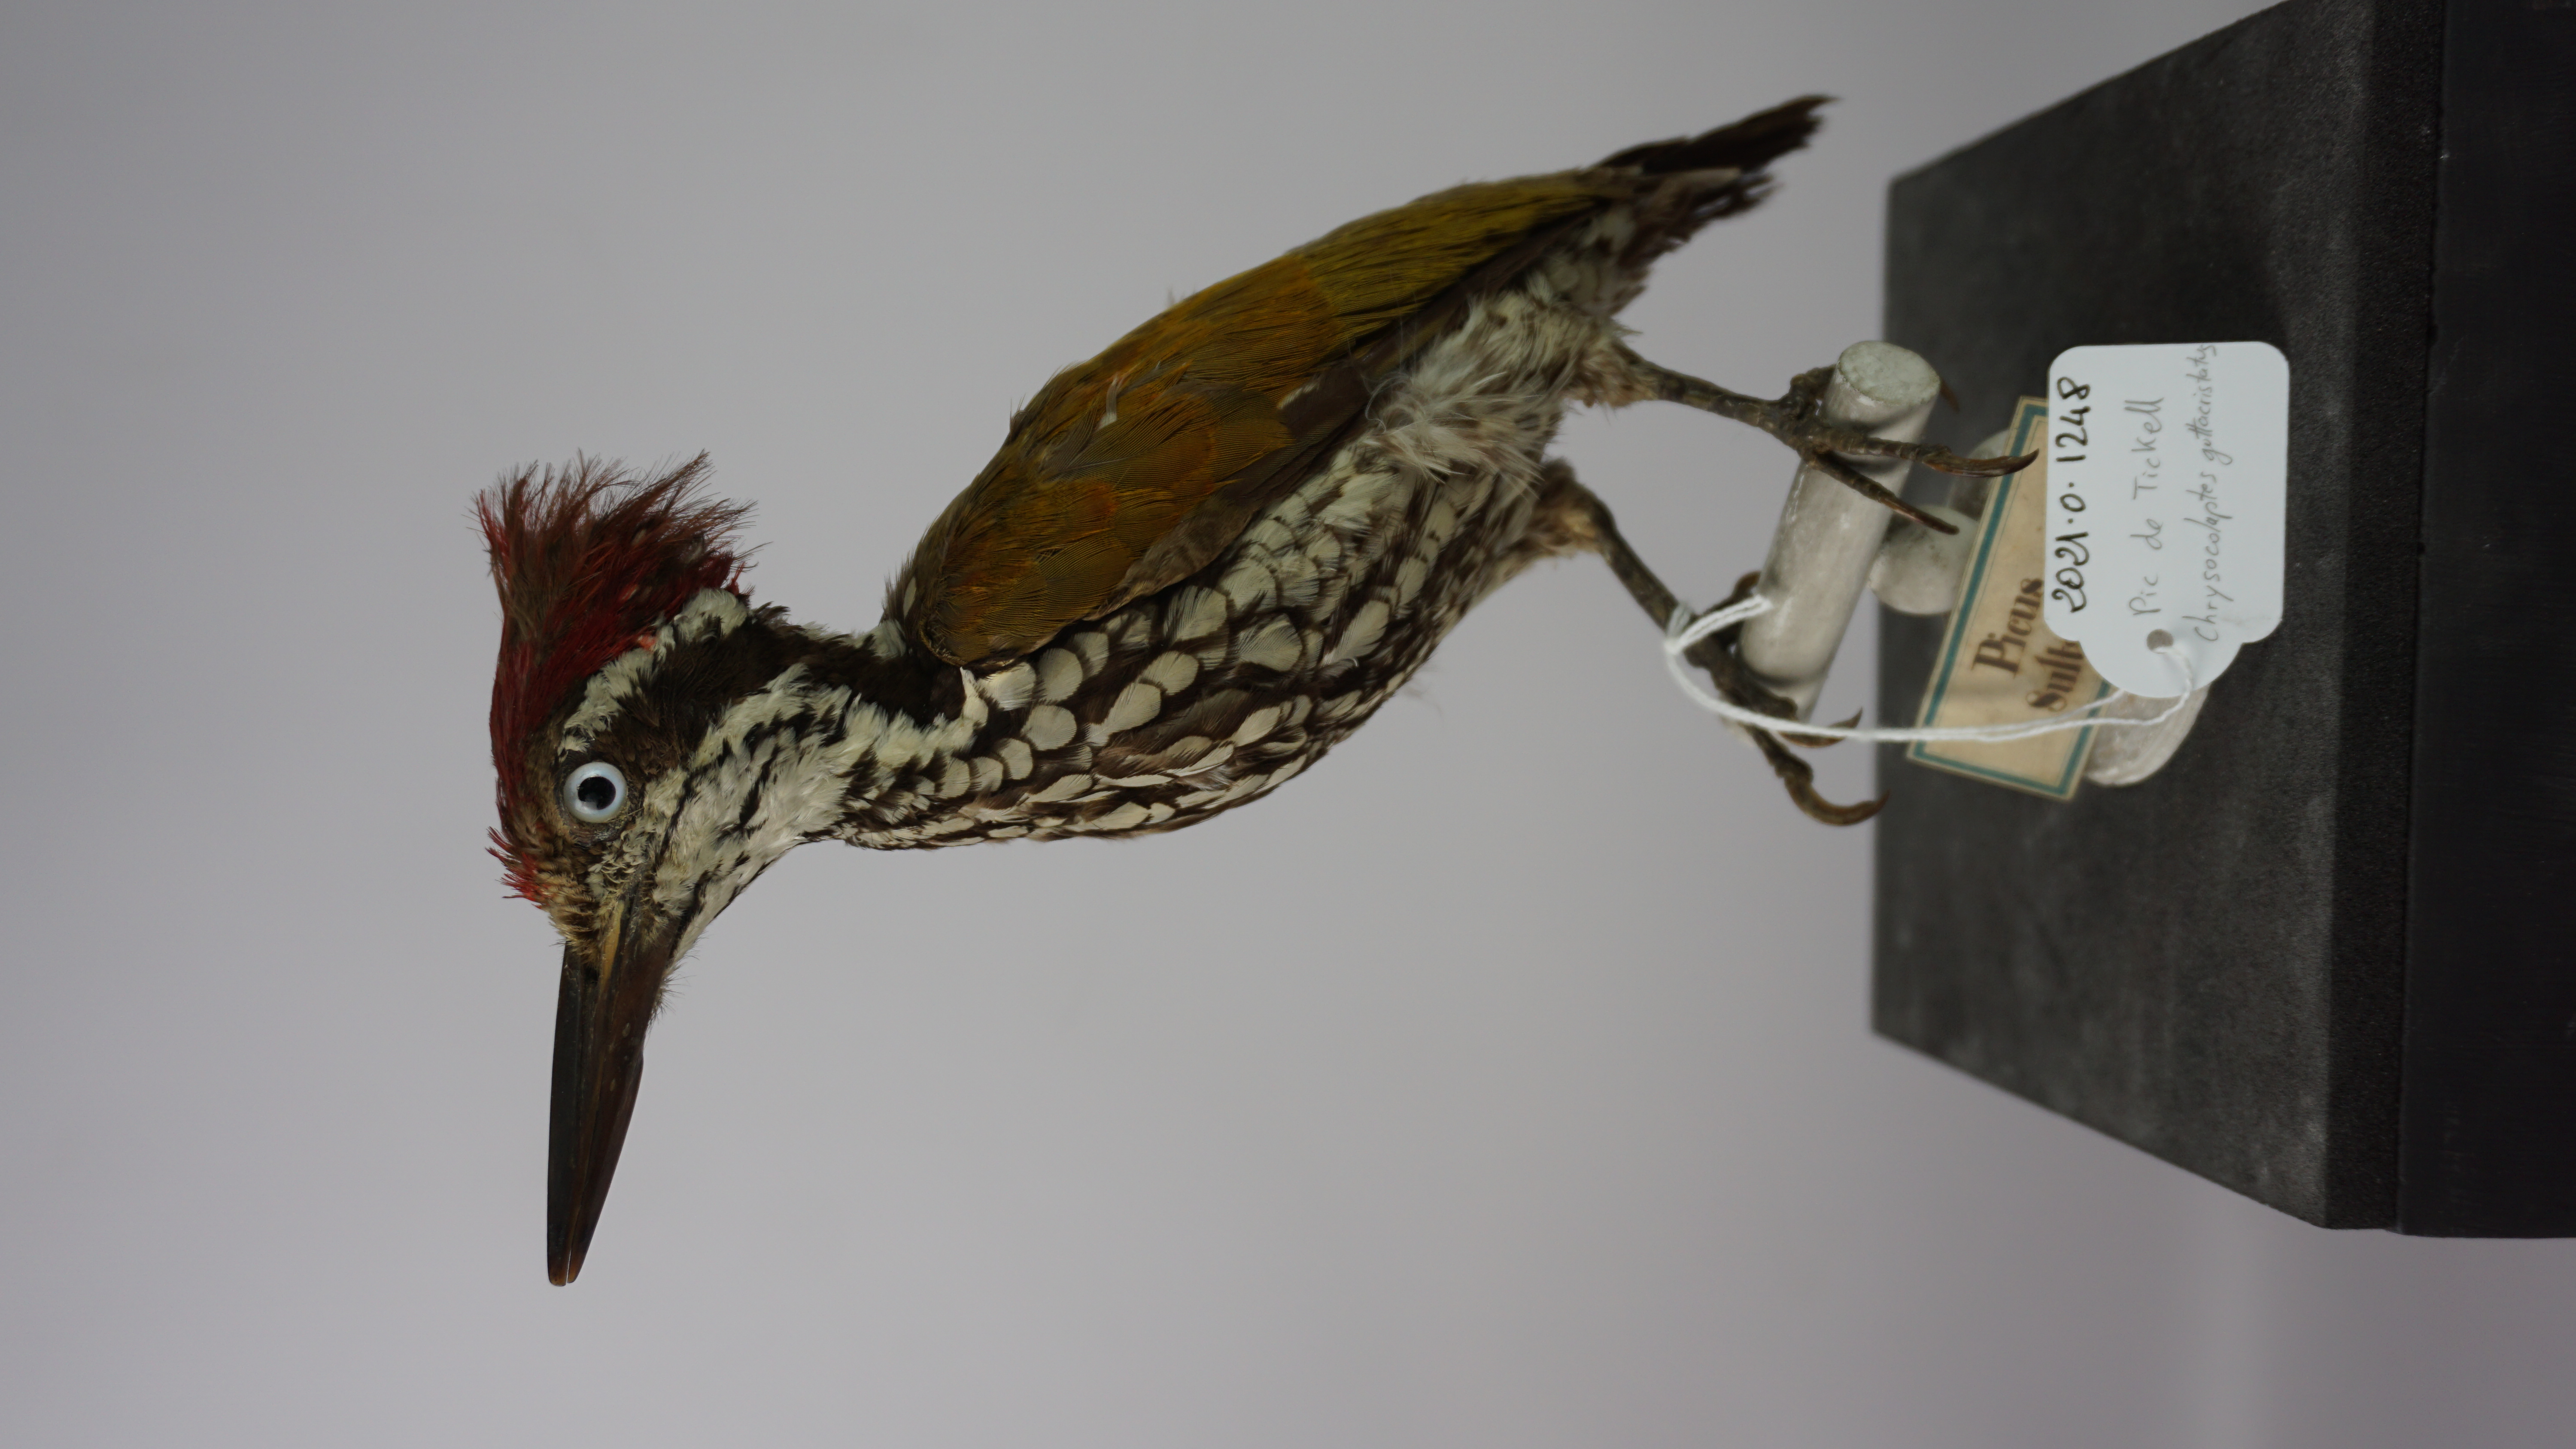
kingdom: Animalia
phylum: Chordata
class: Aves
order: Piciformes
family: Picidae
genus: Chrysocolaptes
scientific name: Chrysocolaptes guttacristatus
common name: Greater flameback
